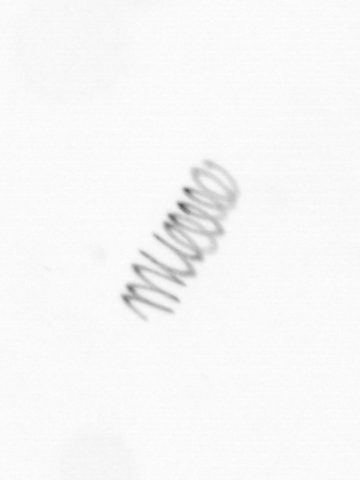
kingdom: Chromista
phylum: Ochrophyta
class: Bacillariophyceae
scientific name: Bacillariophyceae
